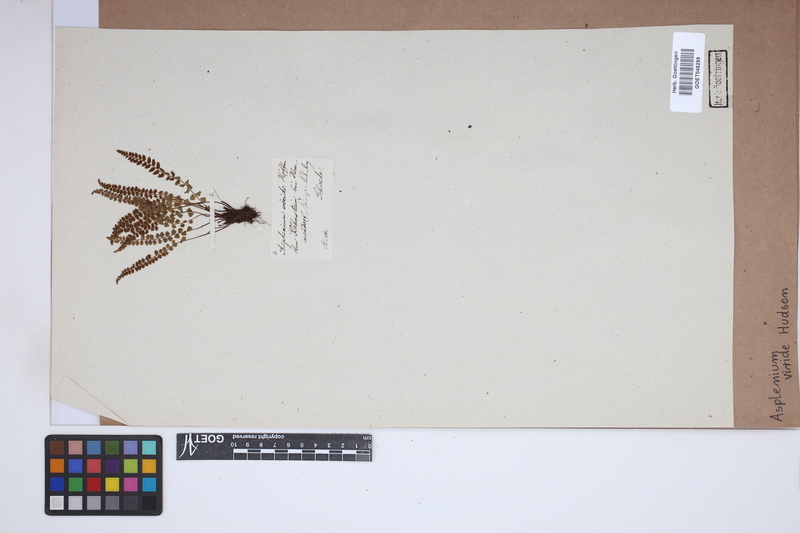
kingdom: Plantae
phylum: Tracheophyta
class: Polypodiopsida
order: Polypodiales
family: Aspleniaceae
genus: Asplenium
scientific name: Asplenium viride
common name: Green spleenwort
